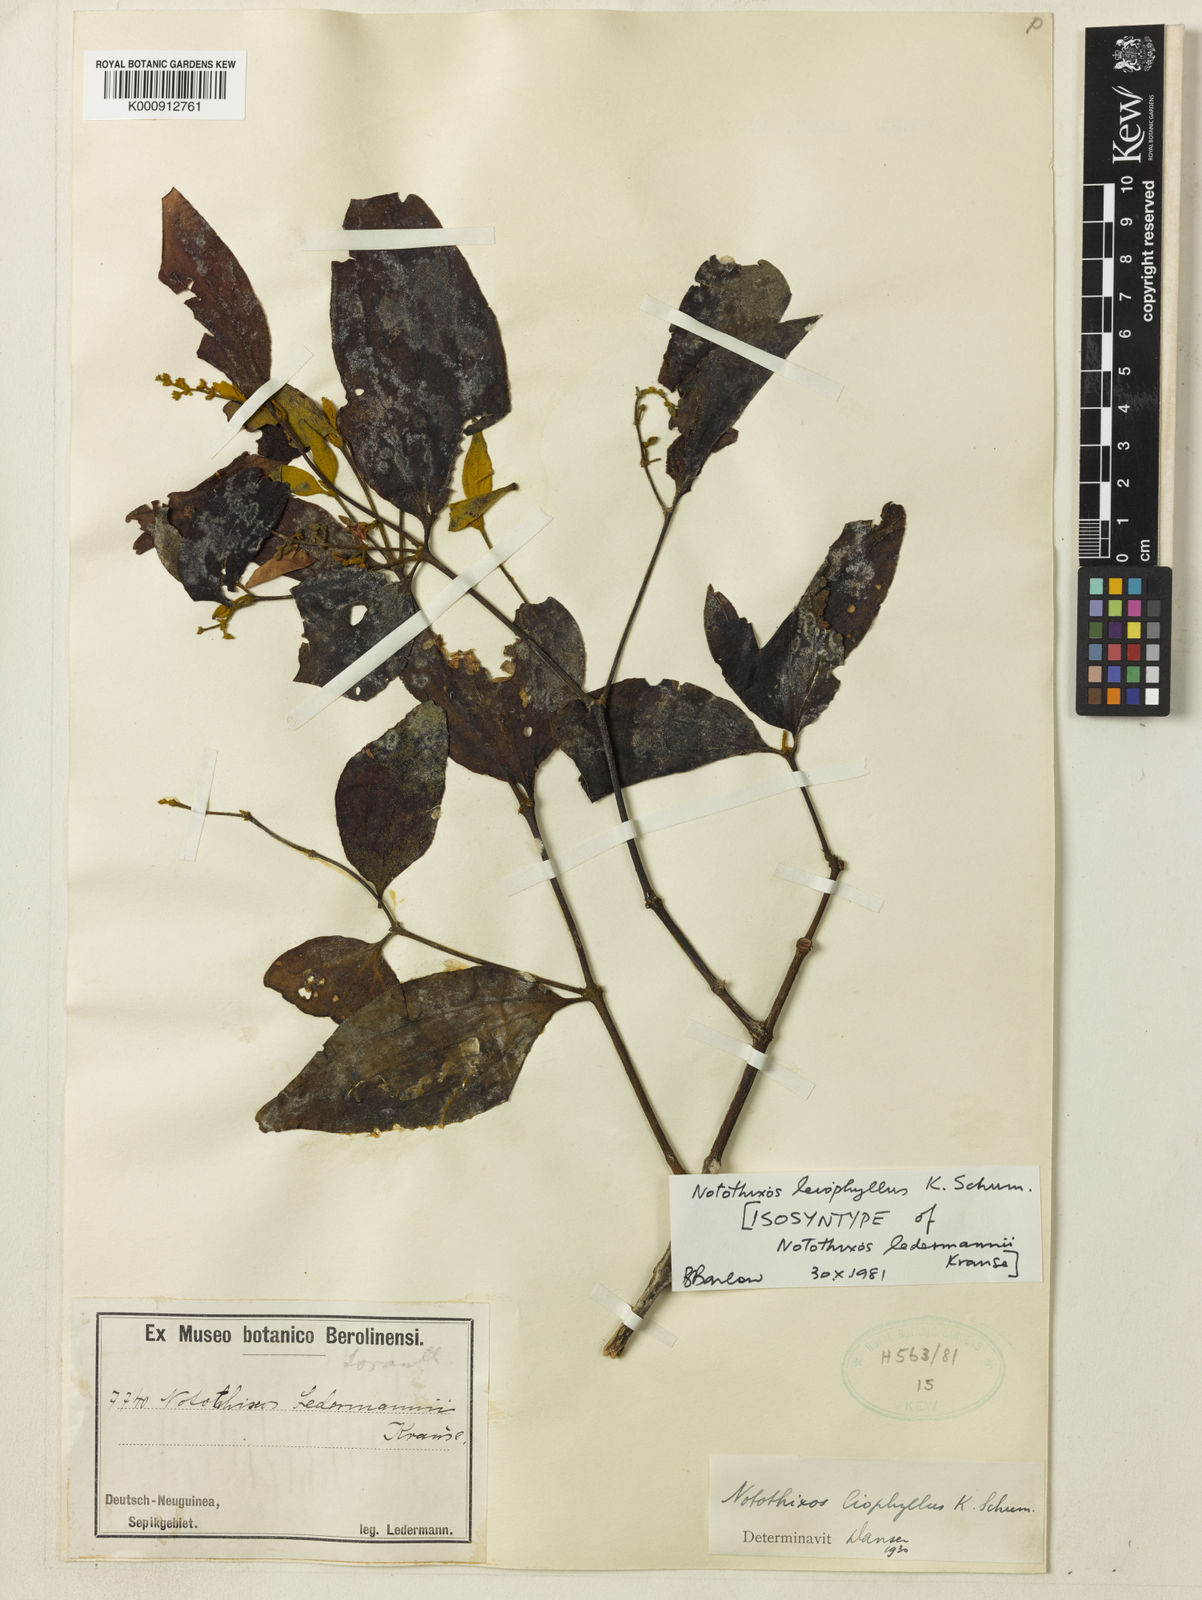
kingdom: Plantae
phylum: Tracheophyta
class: Magnoliopsida
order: Santalales
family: Viscaceae
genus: Notothixos
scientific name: Notothixos leiophyllus
